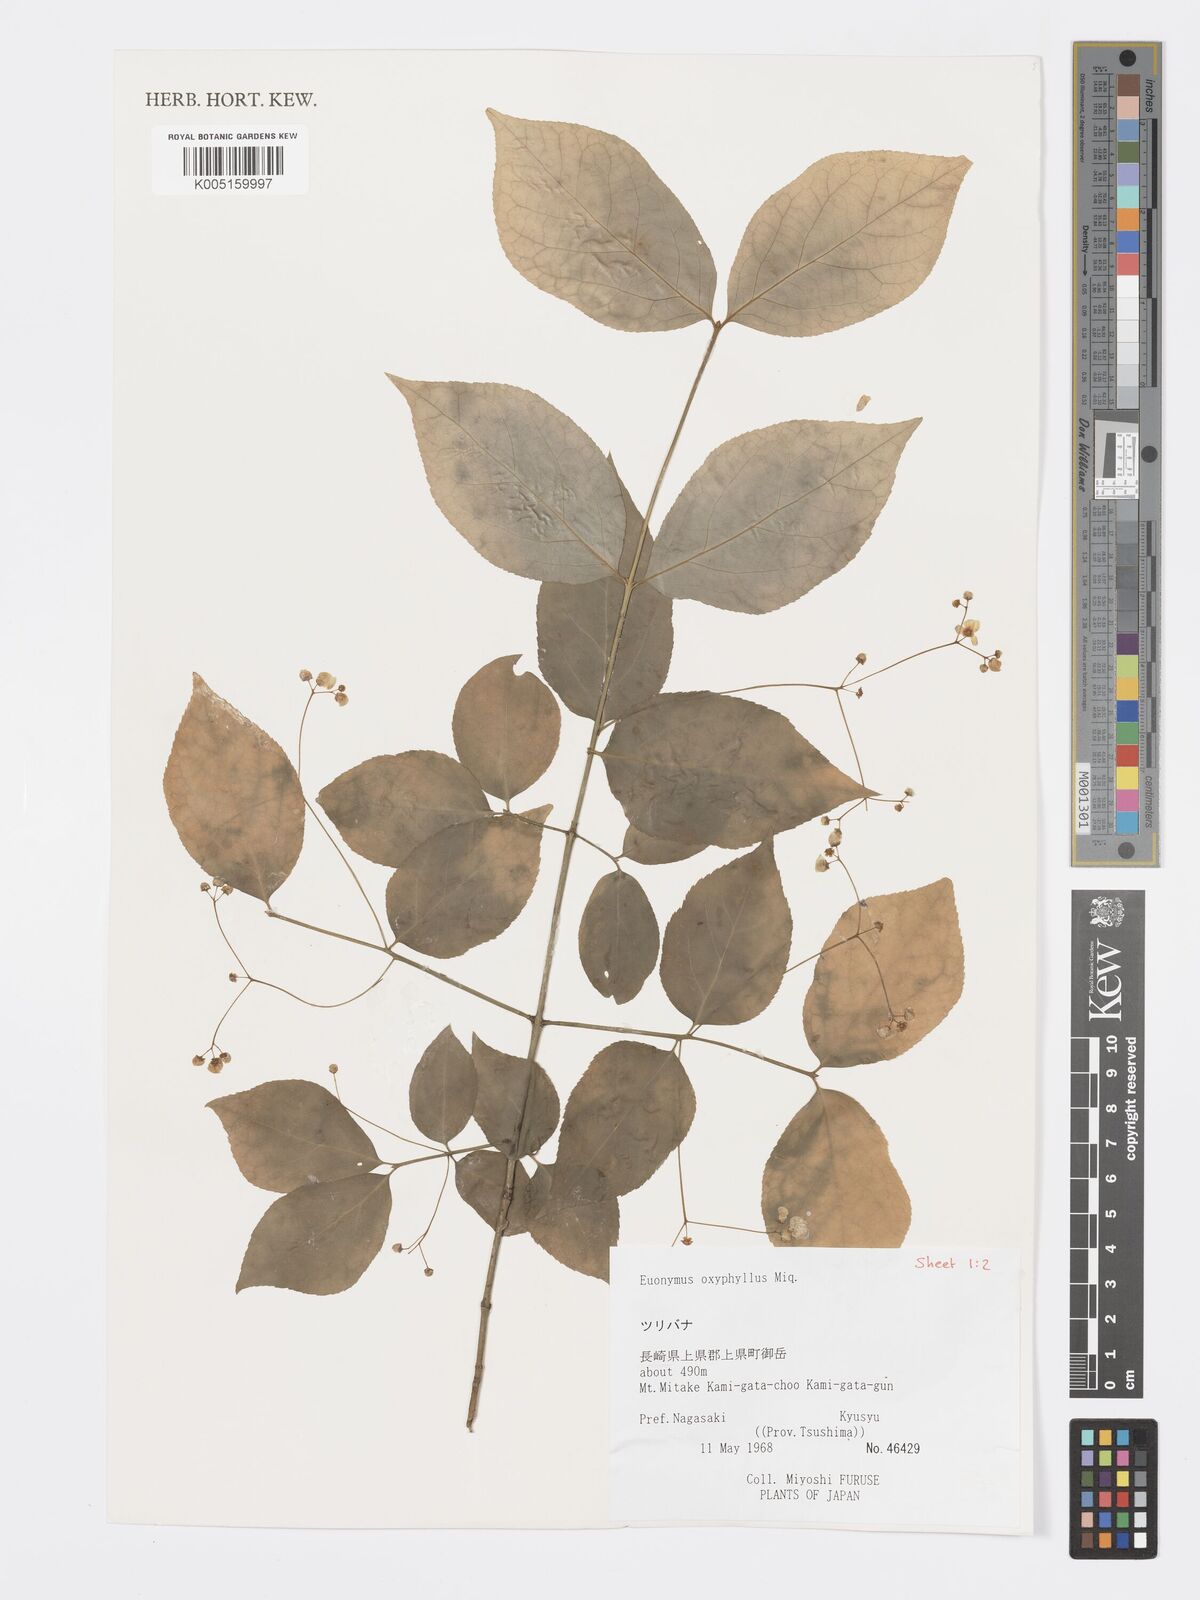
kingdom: Plantae
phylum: Tracheophyta
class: Magnoliopsida
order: Celastrales
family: Celastraceae
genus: Euonymus
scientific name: Euonymus oxyphyllus
